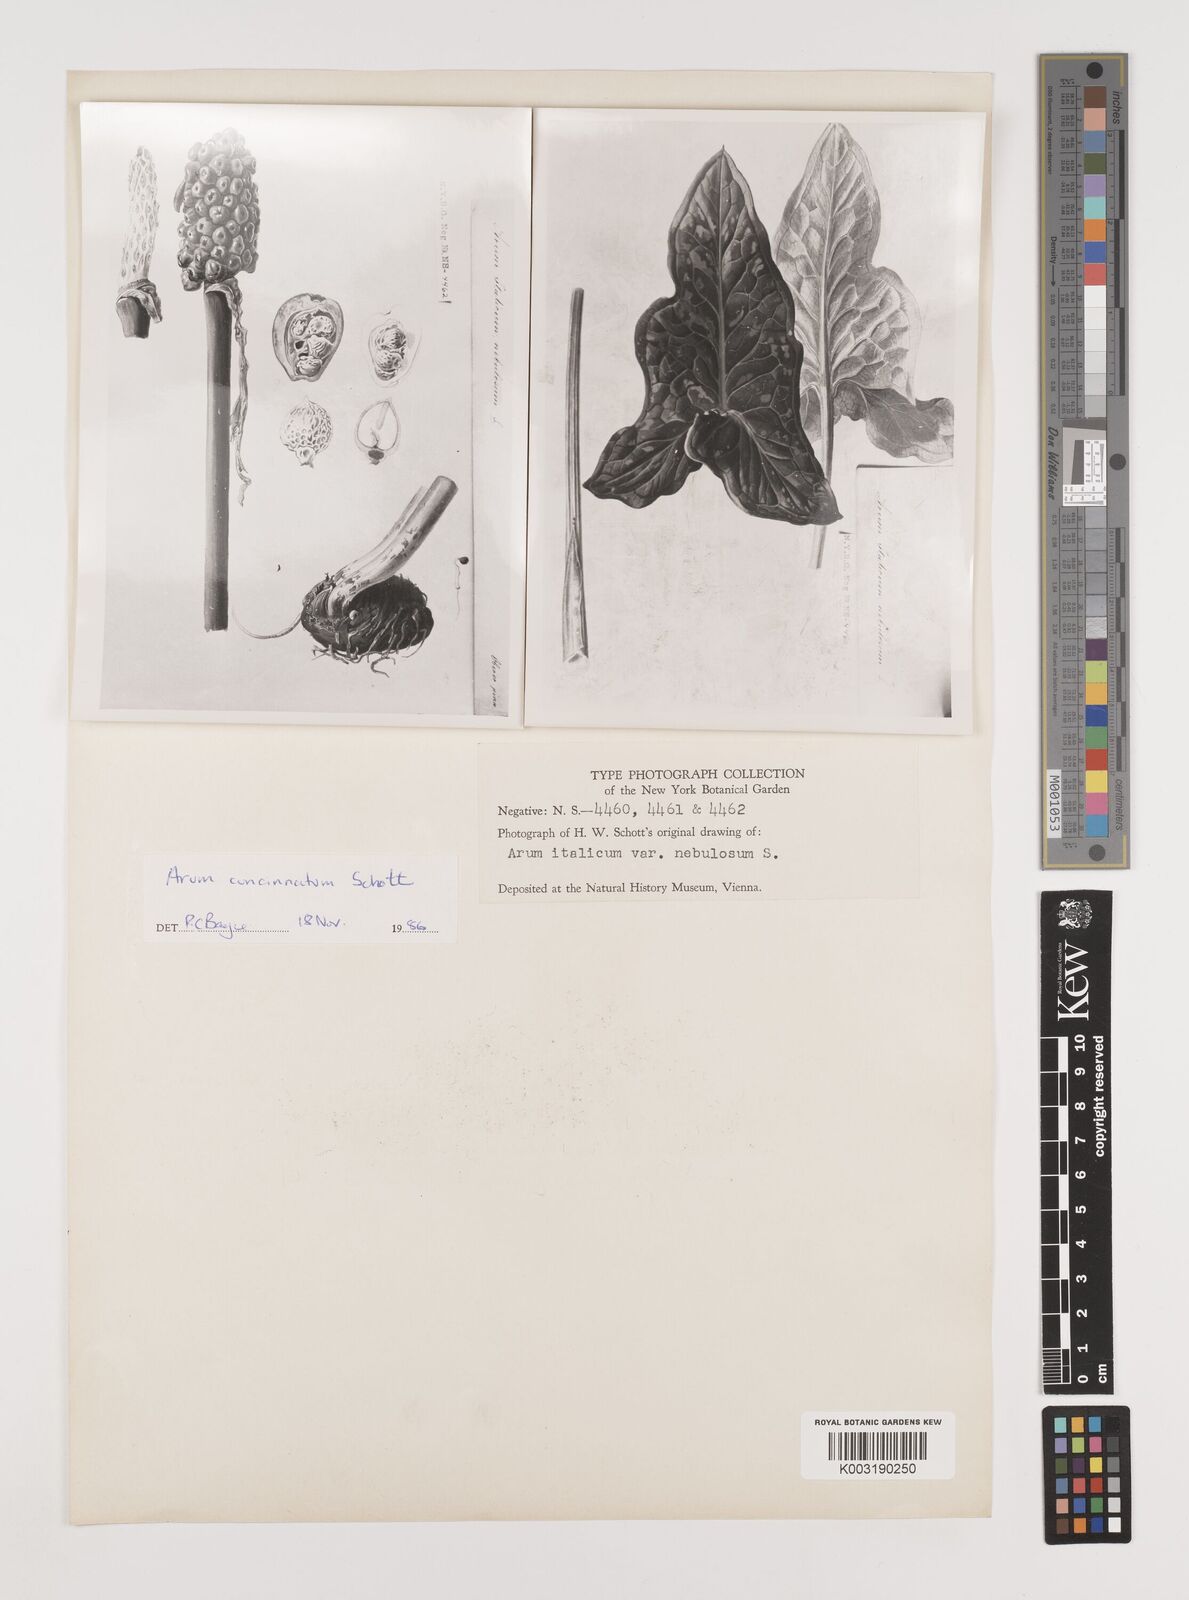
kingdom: Plantae
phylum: Tracheophyta
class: Liliopsida
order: Alismatales
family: Araceae
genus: Arum
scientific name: Arum concinnatum
